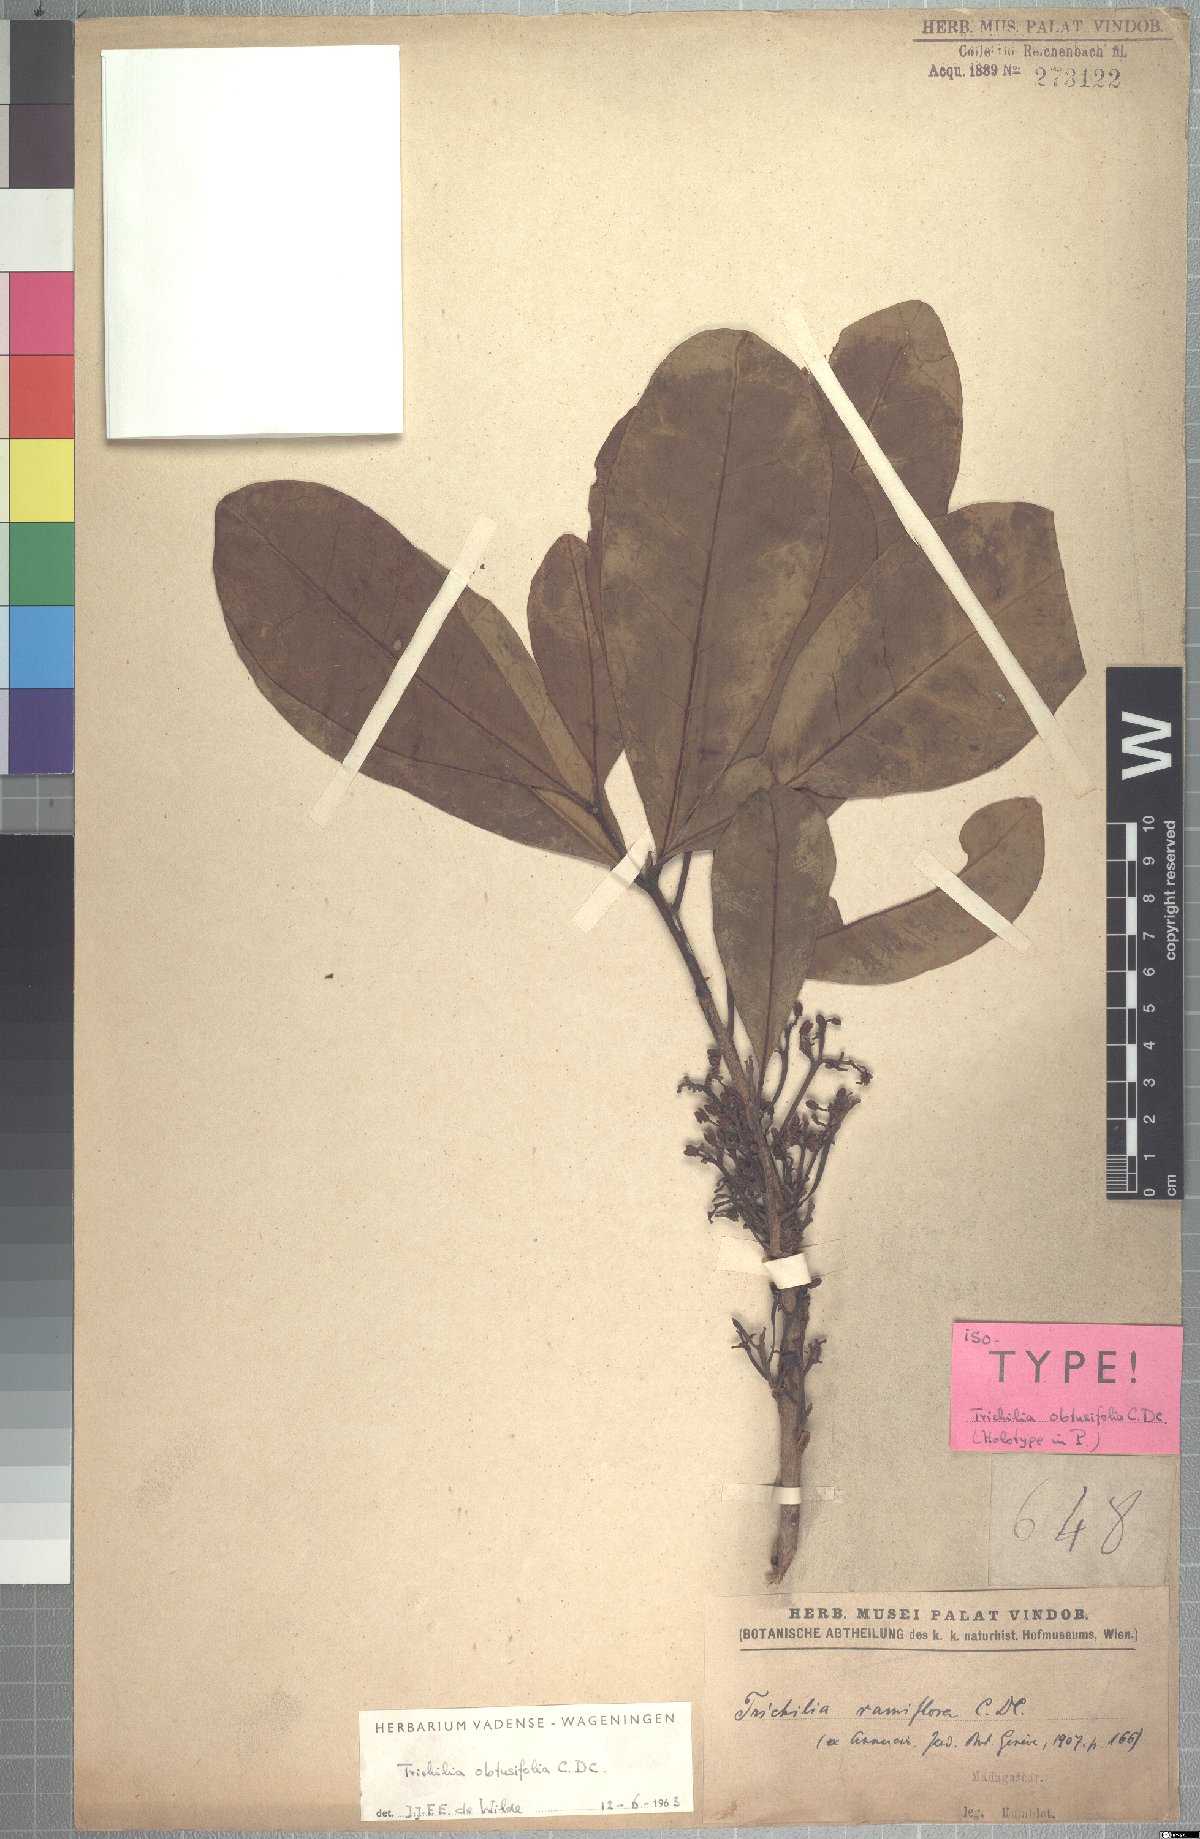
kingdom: Plantae
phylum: Tracheophyta
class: Magnoliopsida
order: Sapindales
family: Meliaceae
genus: Malleastrum
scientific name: Malleastrum obtusifolium
